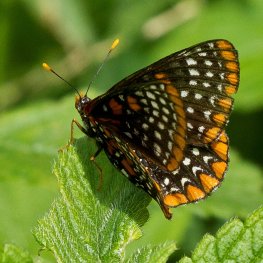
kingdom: Animalia
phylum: Arthropoda
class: Insecta
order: Lepidoptera
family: Nymphalidae
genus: Euphydryas
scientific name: Euphydryas phaeton
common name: Baltimore Checkerspot
